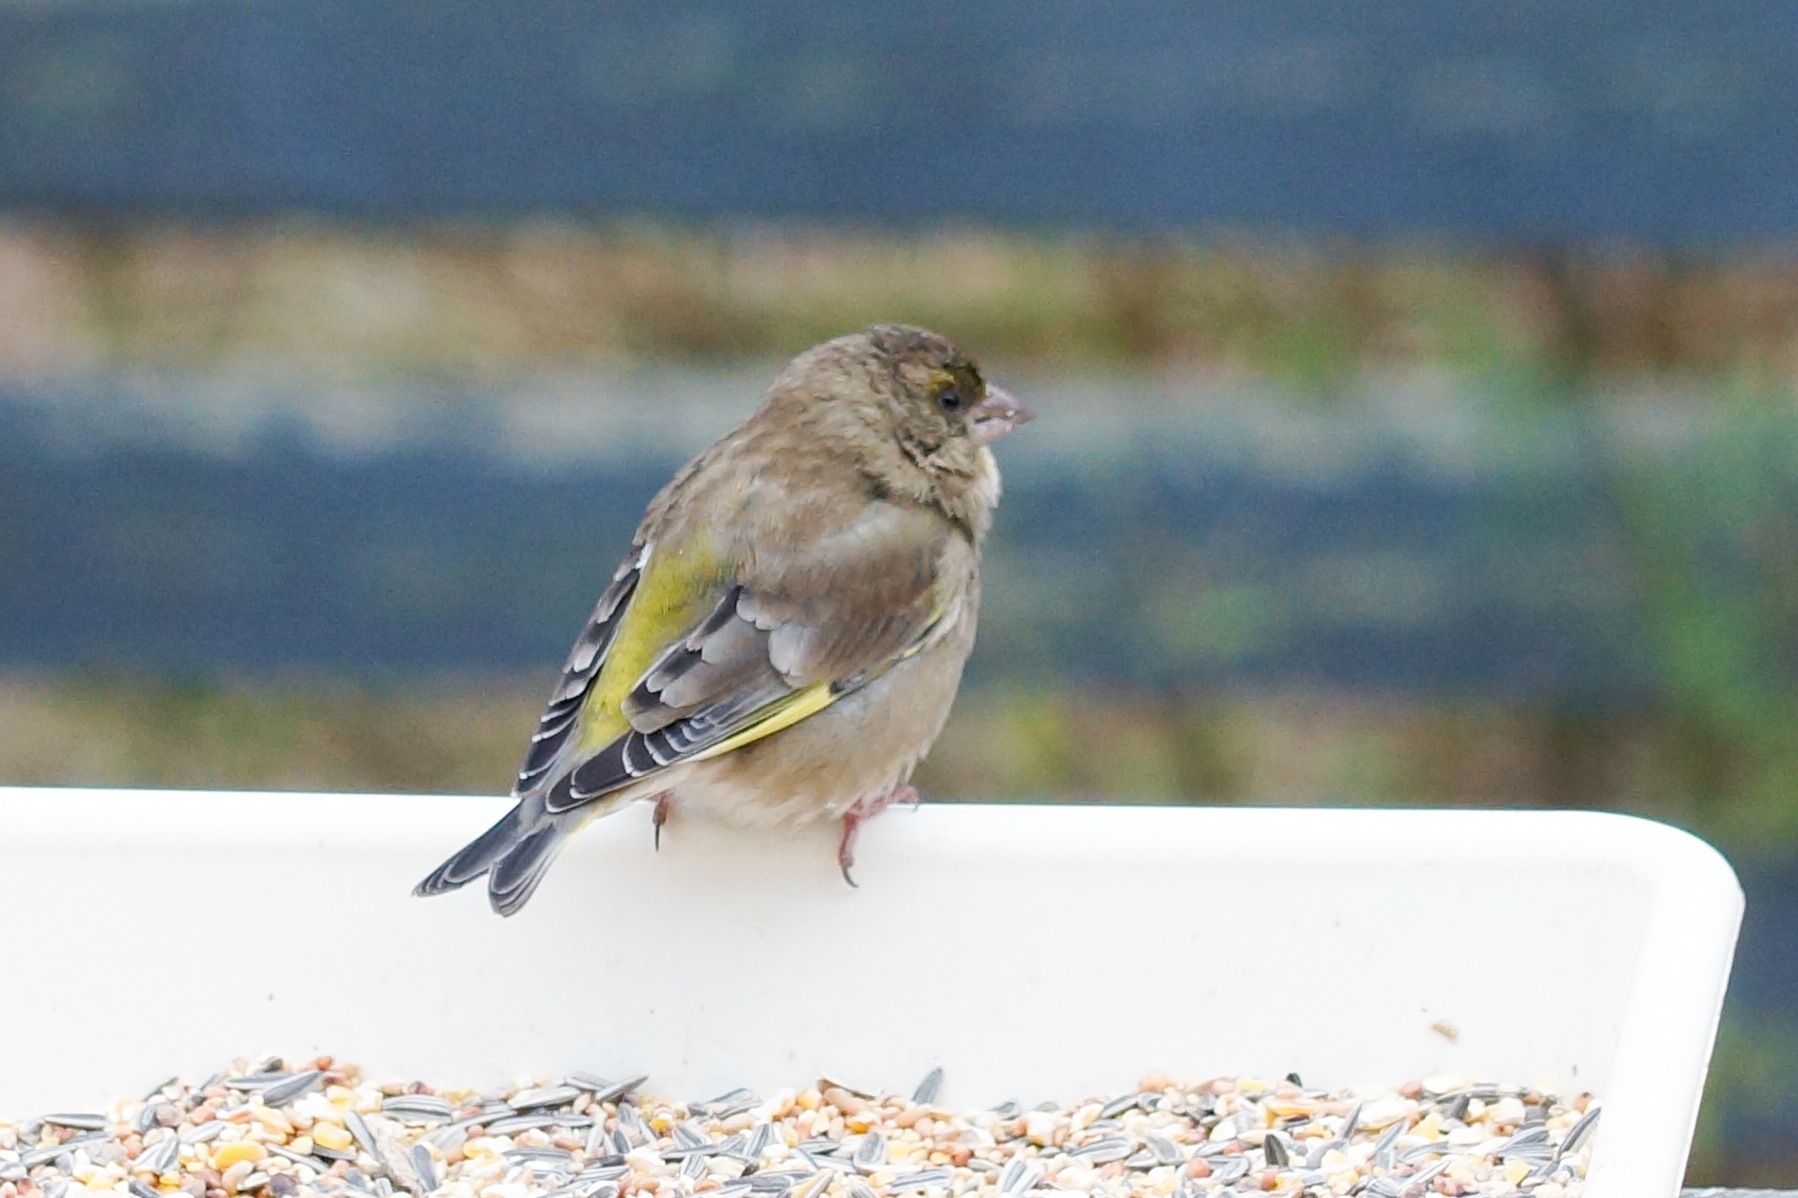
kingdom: Plantae
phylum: Tracheophyta
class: Liliopsida
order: Poales
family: Poaceae
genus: Chloris
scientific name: Chloris chloris
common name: Grønirisk
